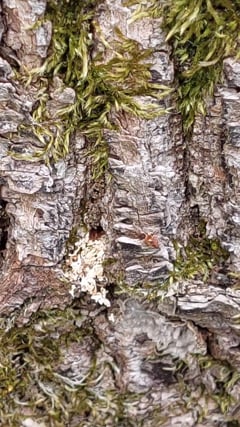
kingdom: Animalia
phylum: Arthropoda
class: Insecta
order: Hymenoptera
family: Crabronidae
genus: Pemphredon
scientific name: Pemphredon
